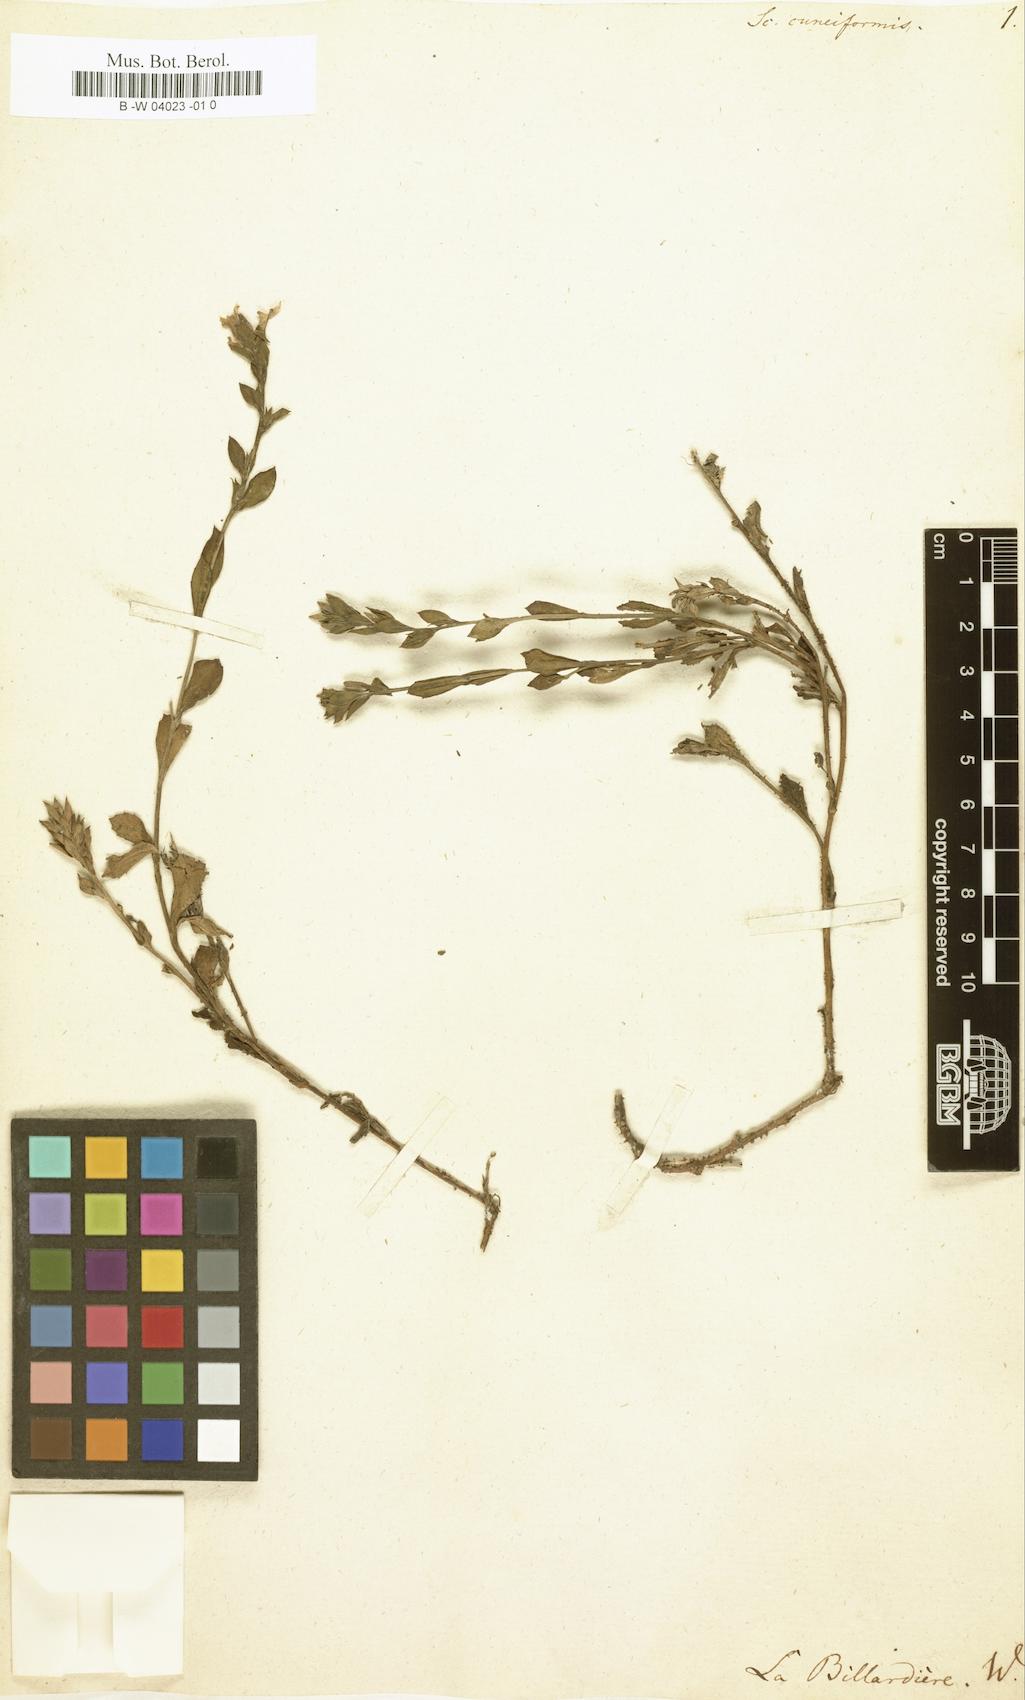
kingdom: Plantae
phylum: Tracheophyta
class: Magnoliopsida
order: Asterales
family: Goodeniaceae
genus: Scaevola
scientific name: Scaevola cuneiformis
